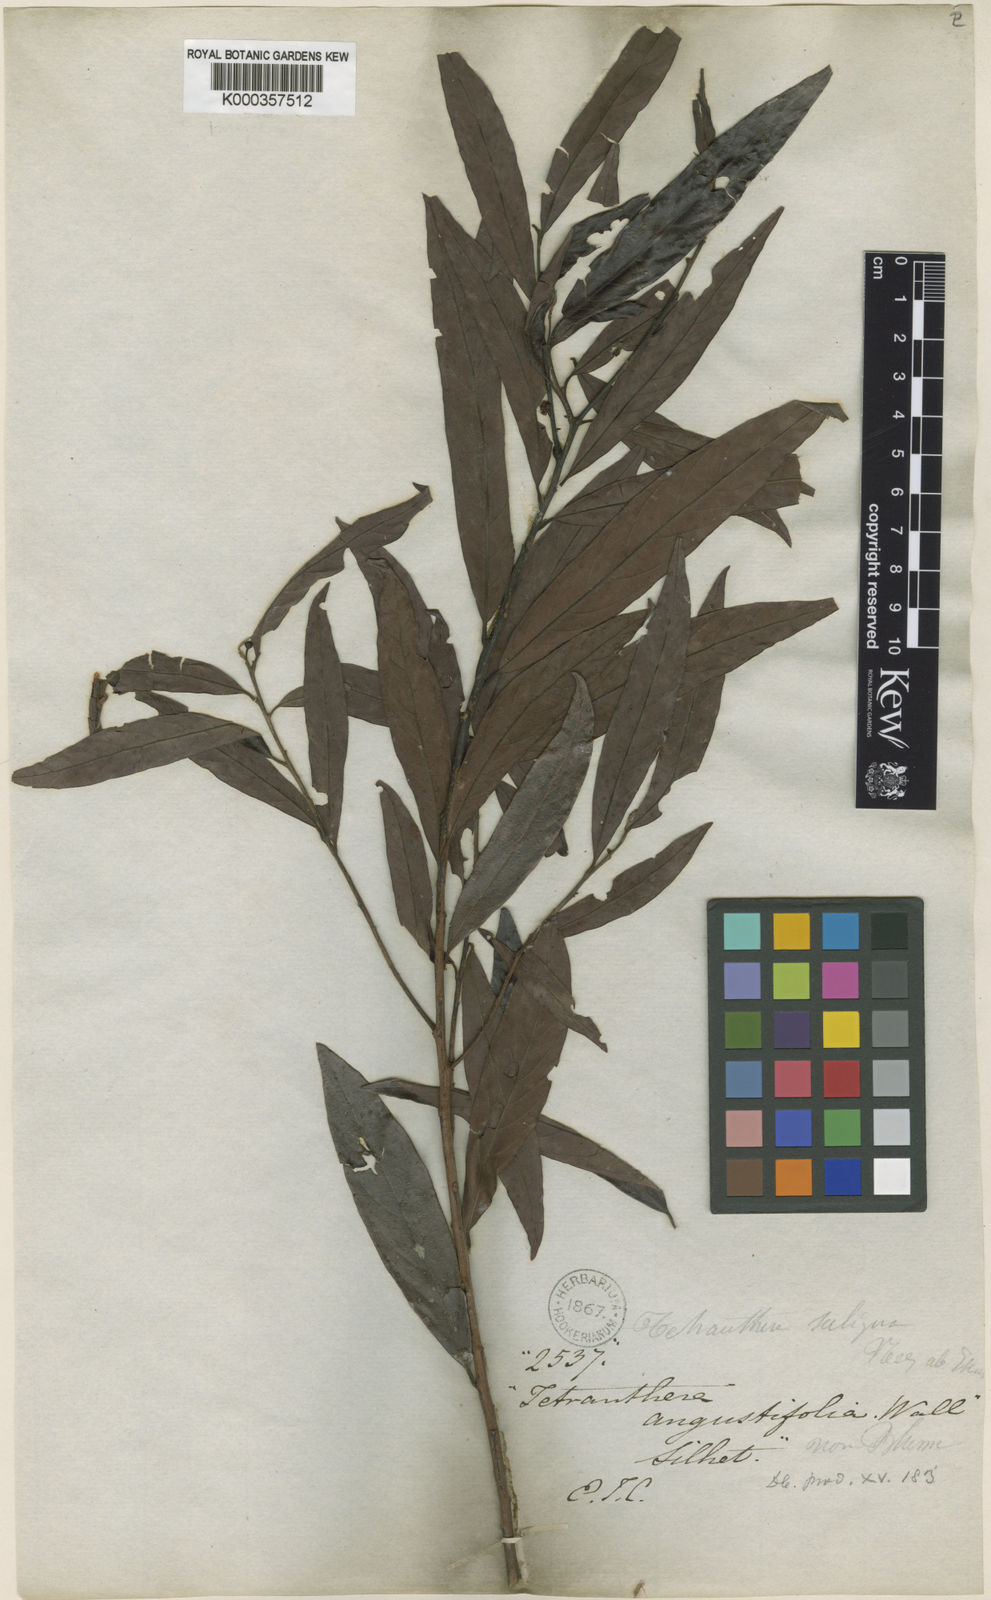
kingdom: Plantae
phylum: Tracheophyta
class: Magnoliopsida
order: Laurales
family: Lauraceae
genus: Litsea
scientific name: Litsea saligna
